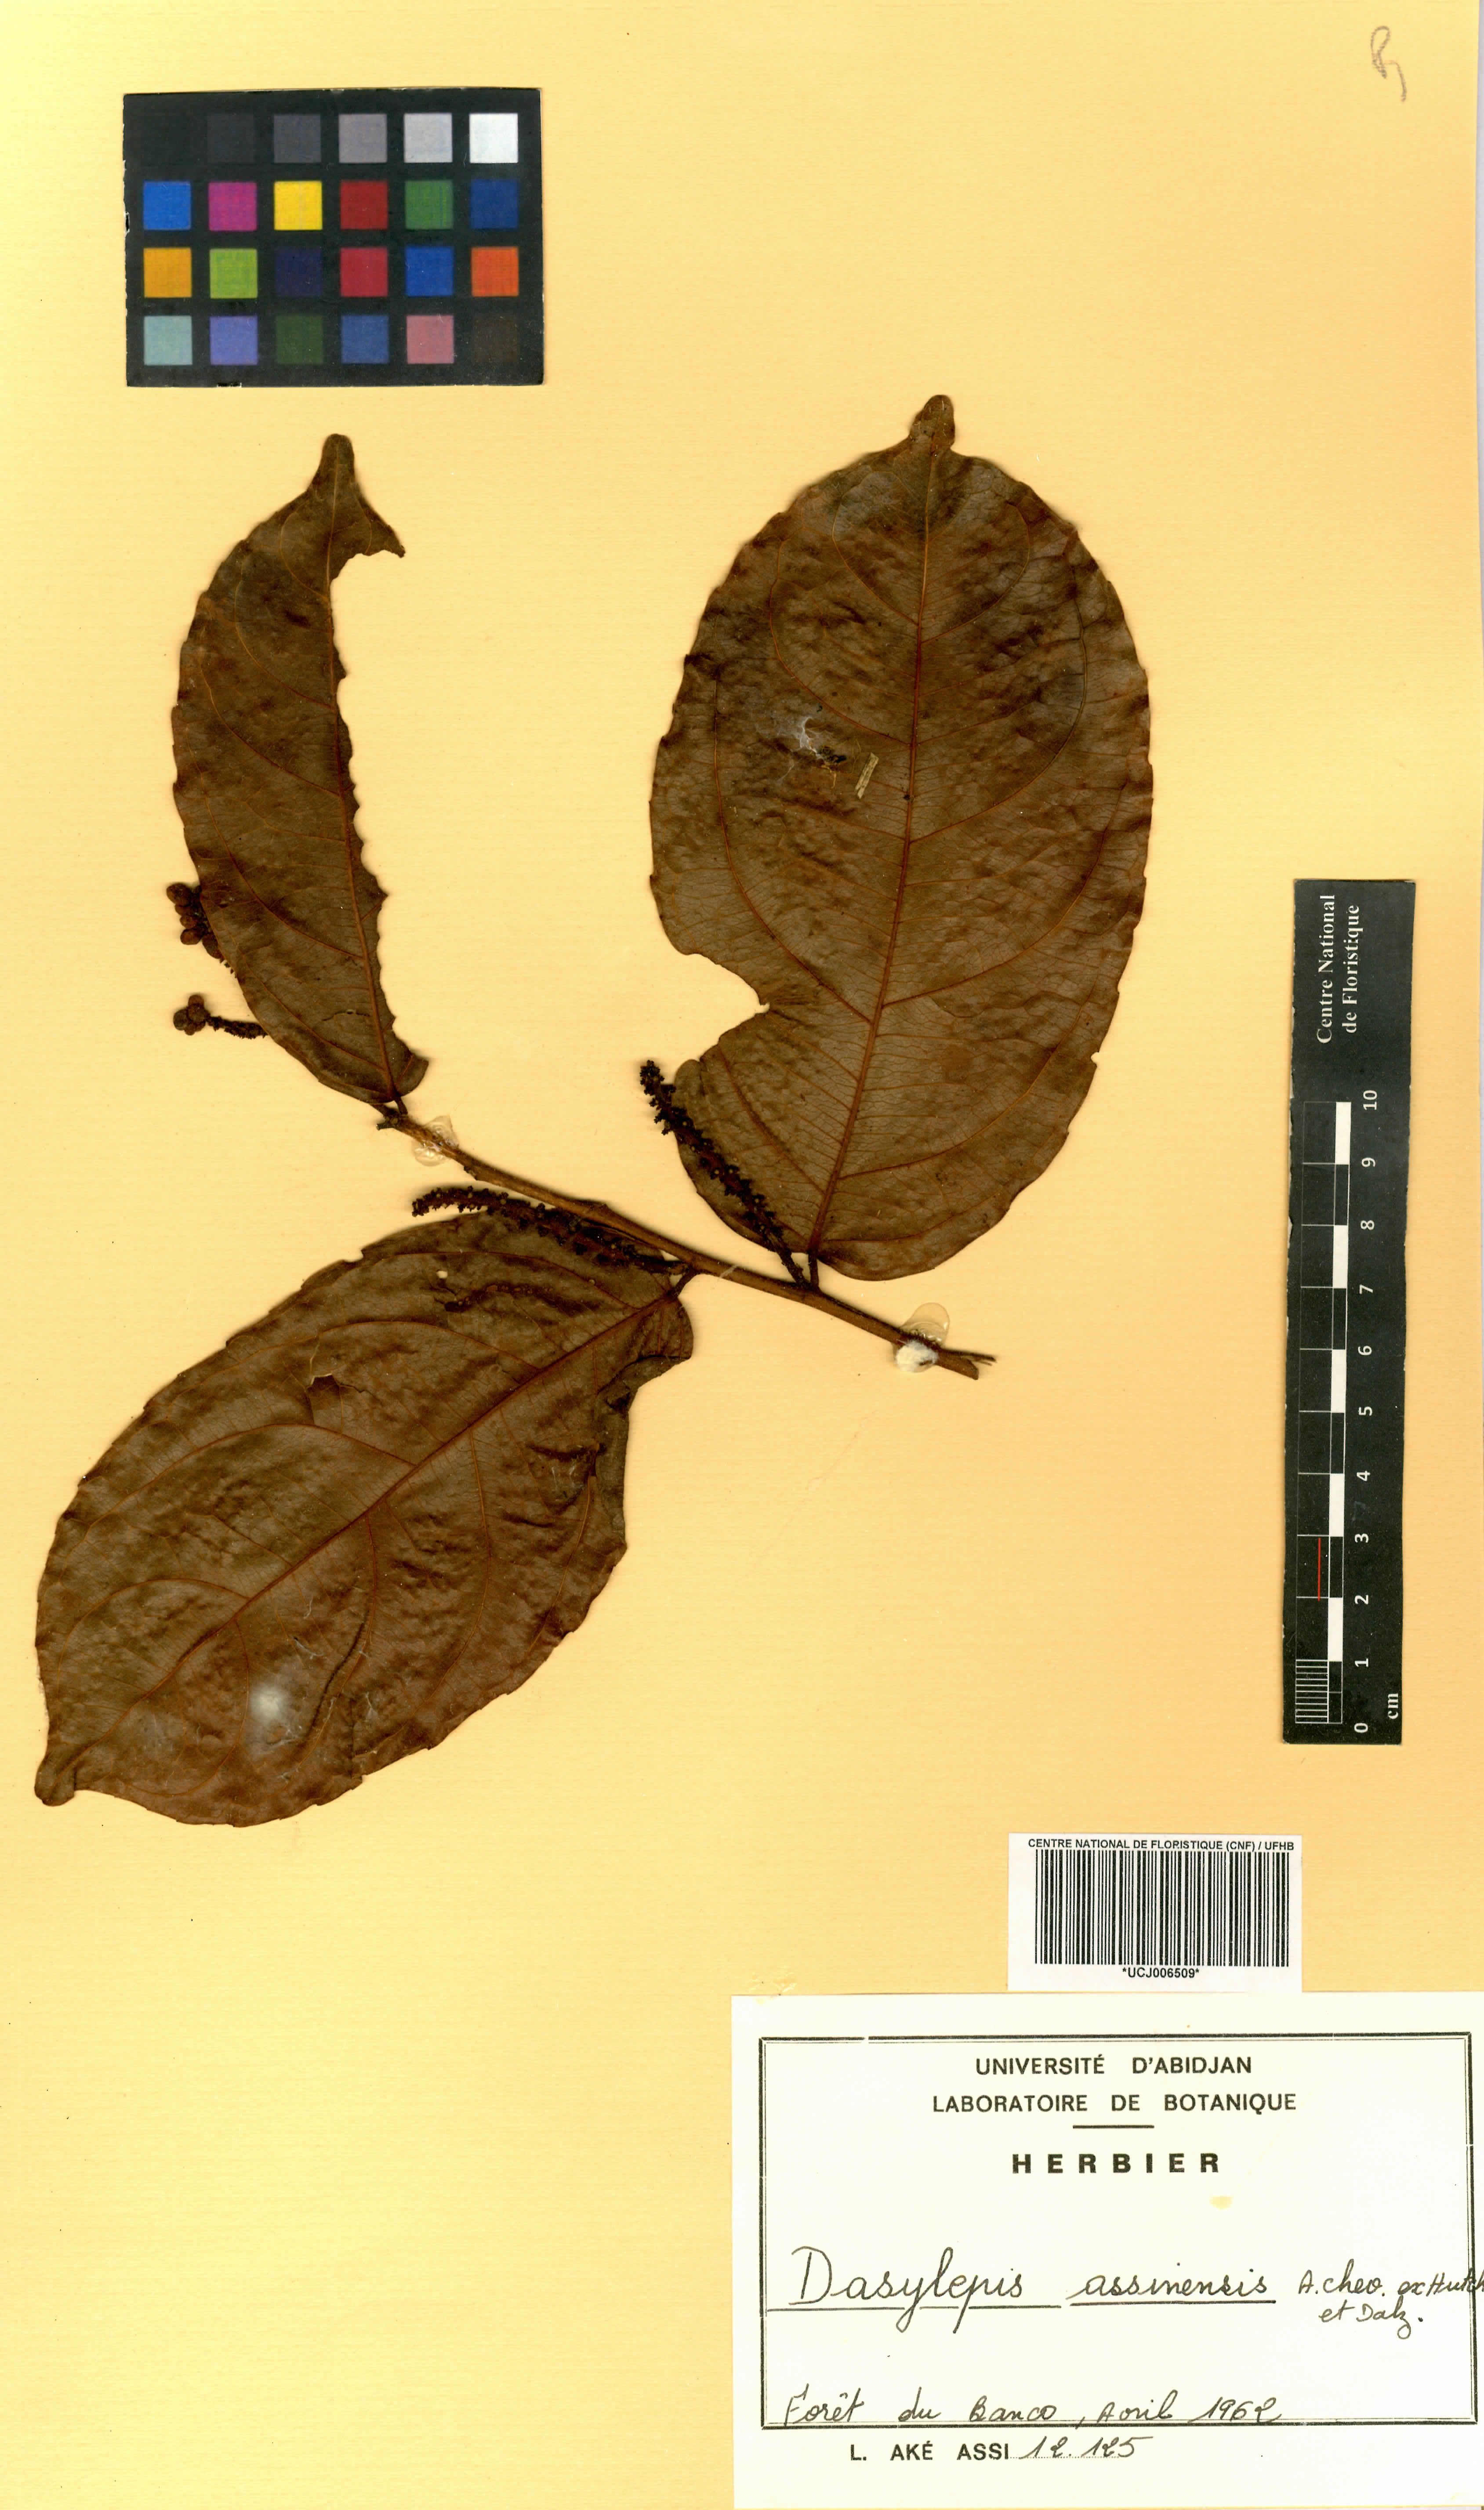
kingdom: Plantae
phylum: Tracheophyta
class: Magnoliopsida
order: Malpighiales
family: Achariaceae
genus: Dasylepis
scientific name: Dasylepis racemosa
